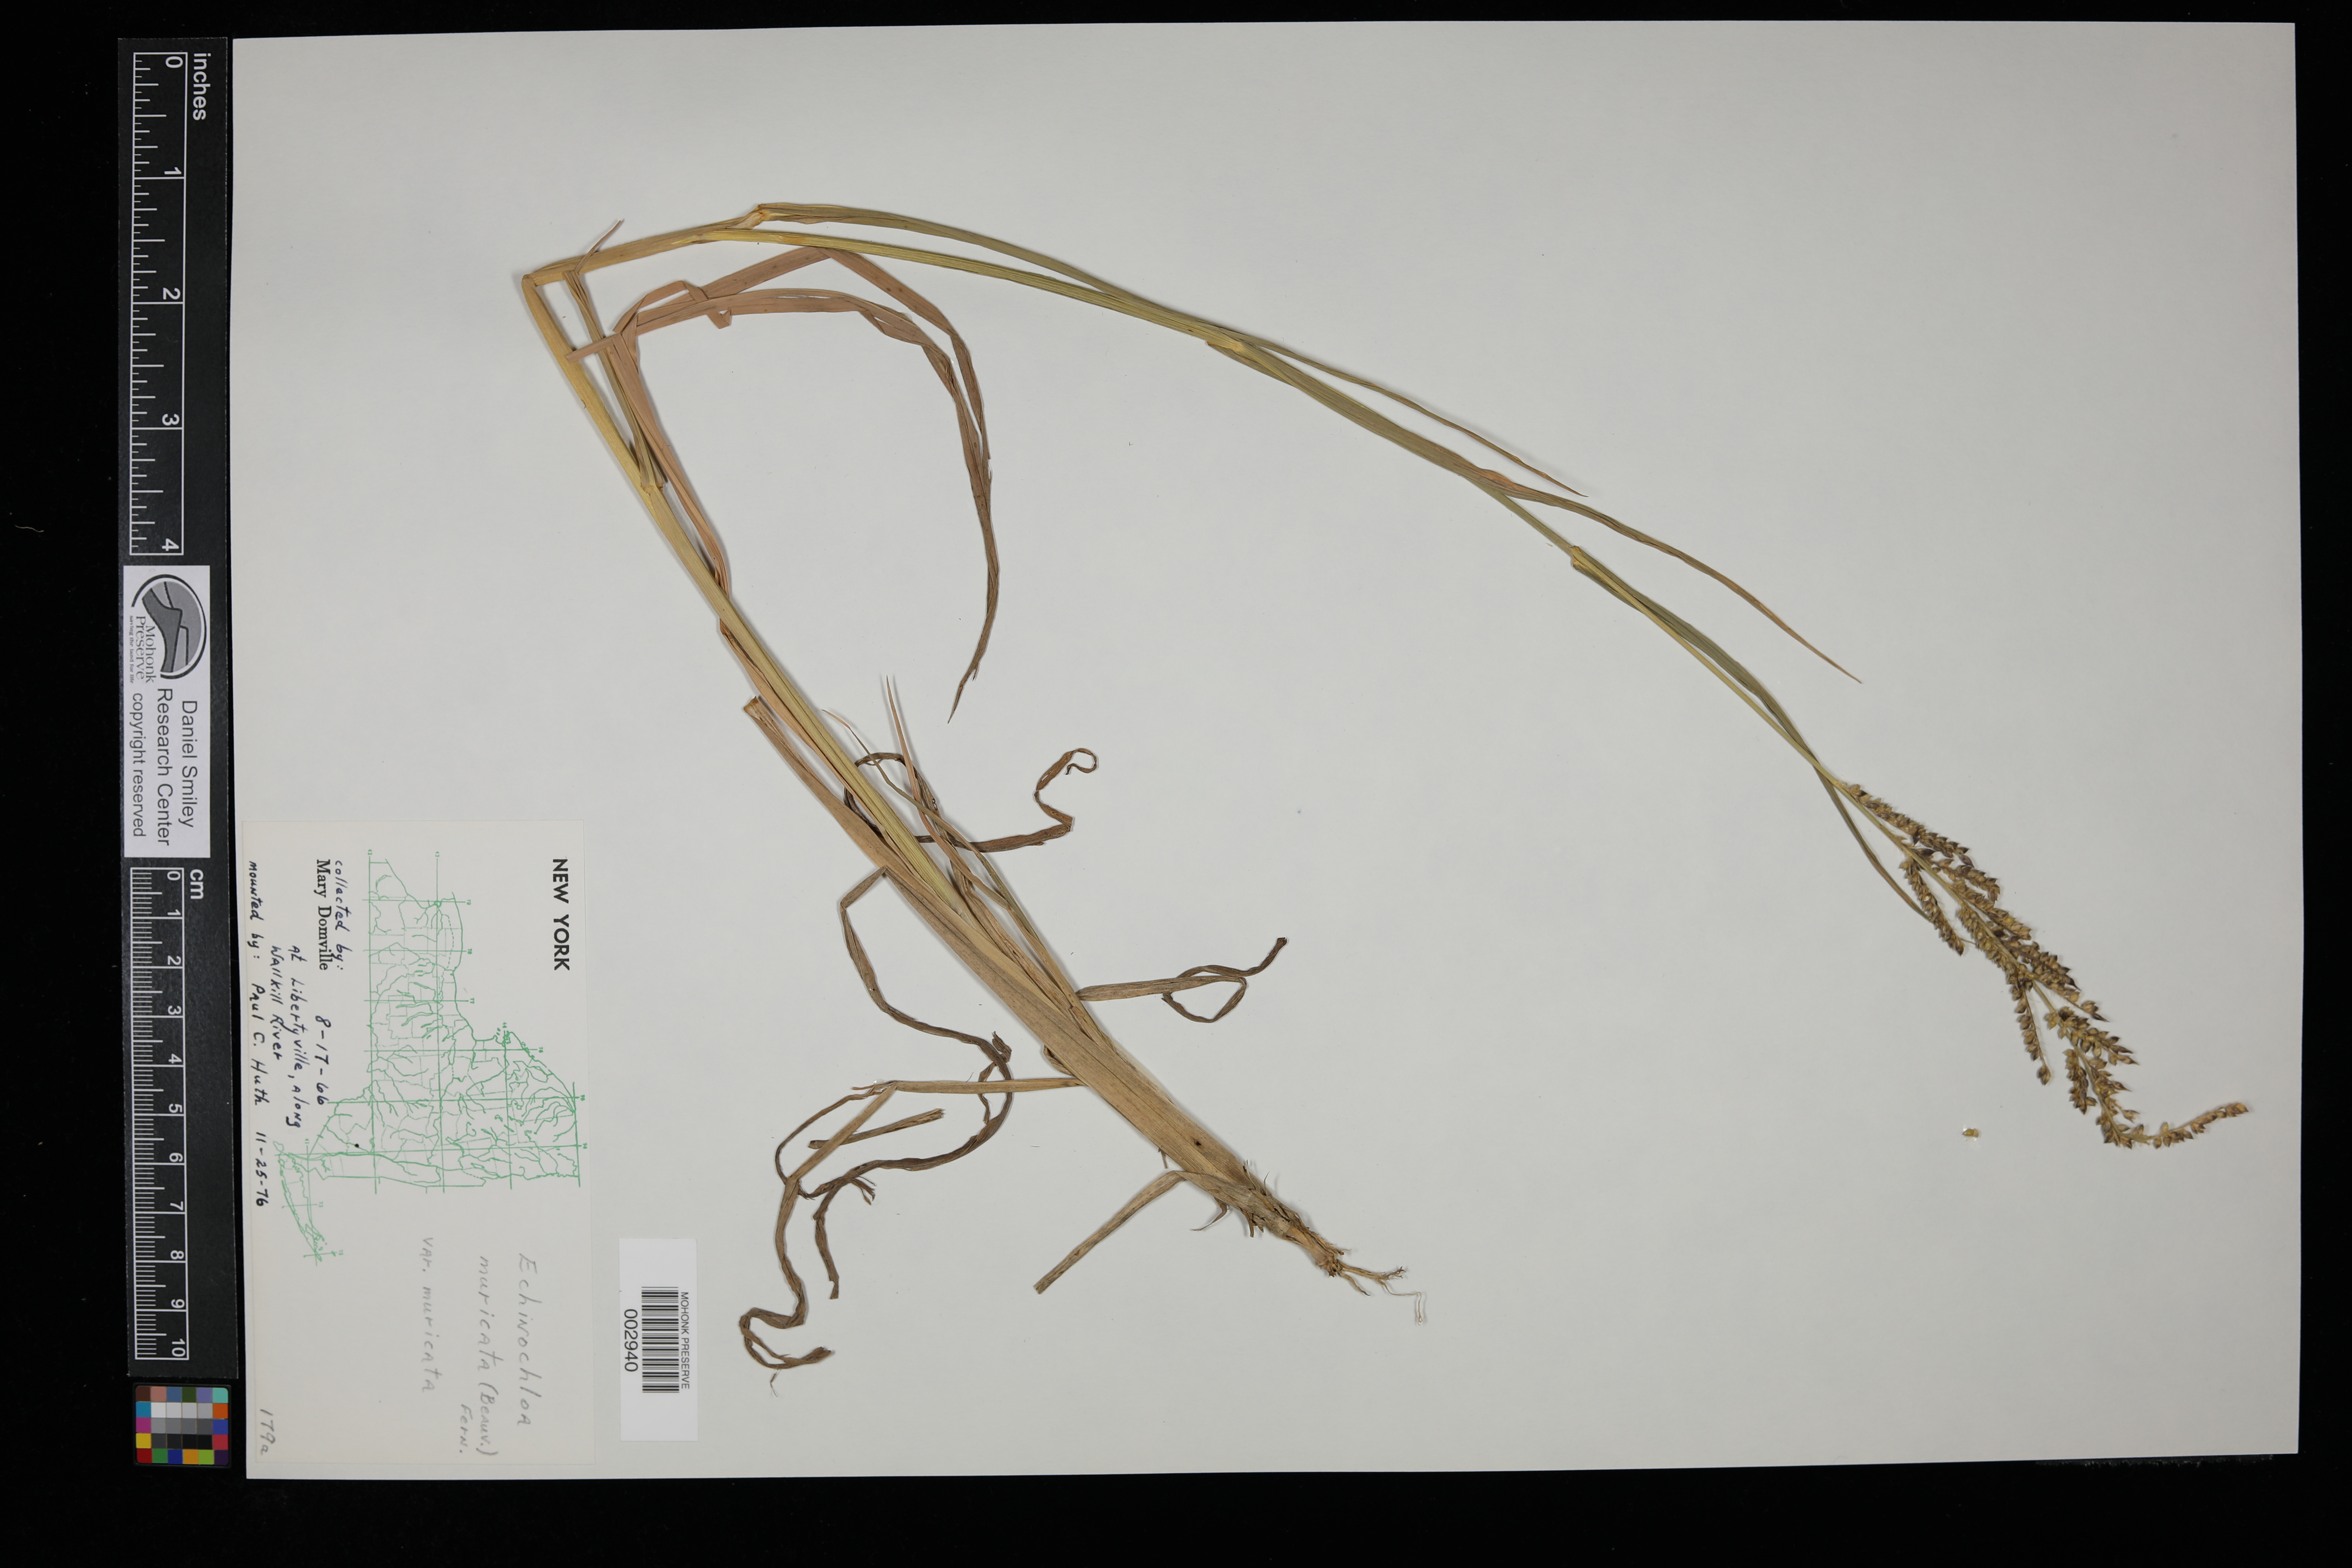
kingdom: Plantae
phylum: Tracheophyta
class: Liliopsida
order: Poales
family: Poaceae
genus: Echinochloa
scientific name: Echinochloa muricata
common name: American barnyard grass
